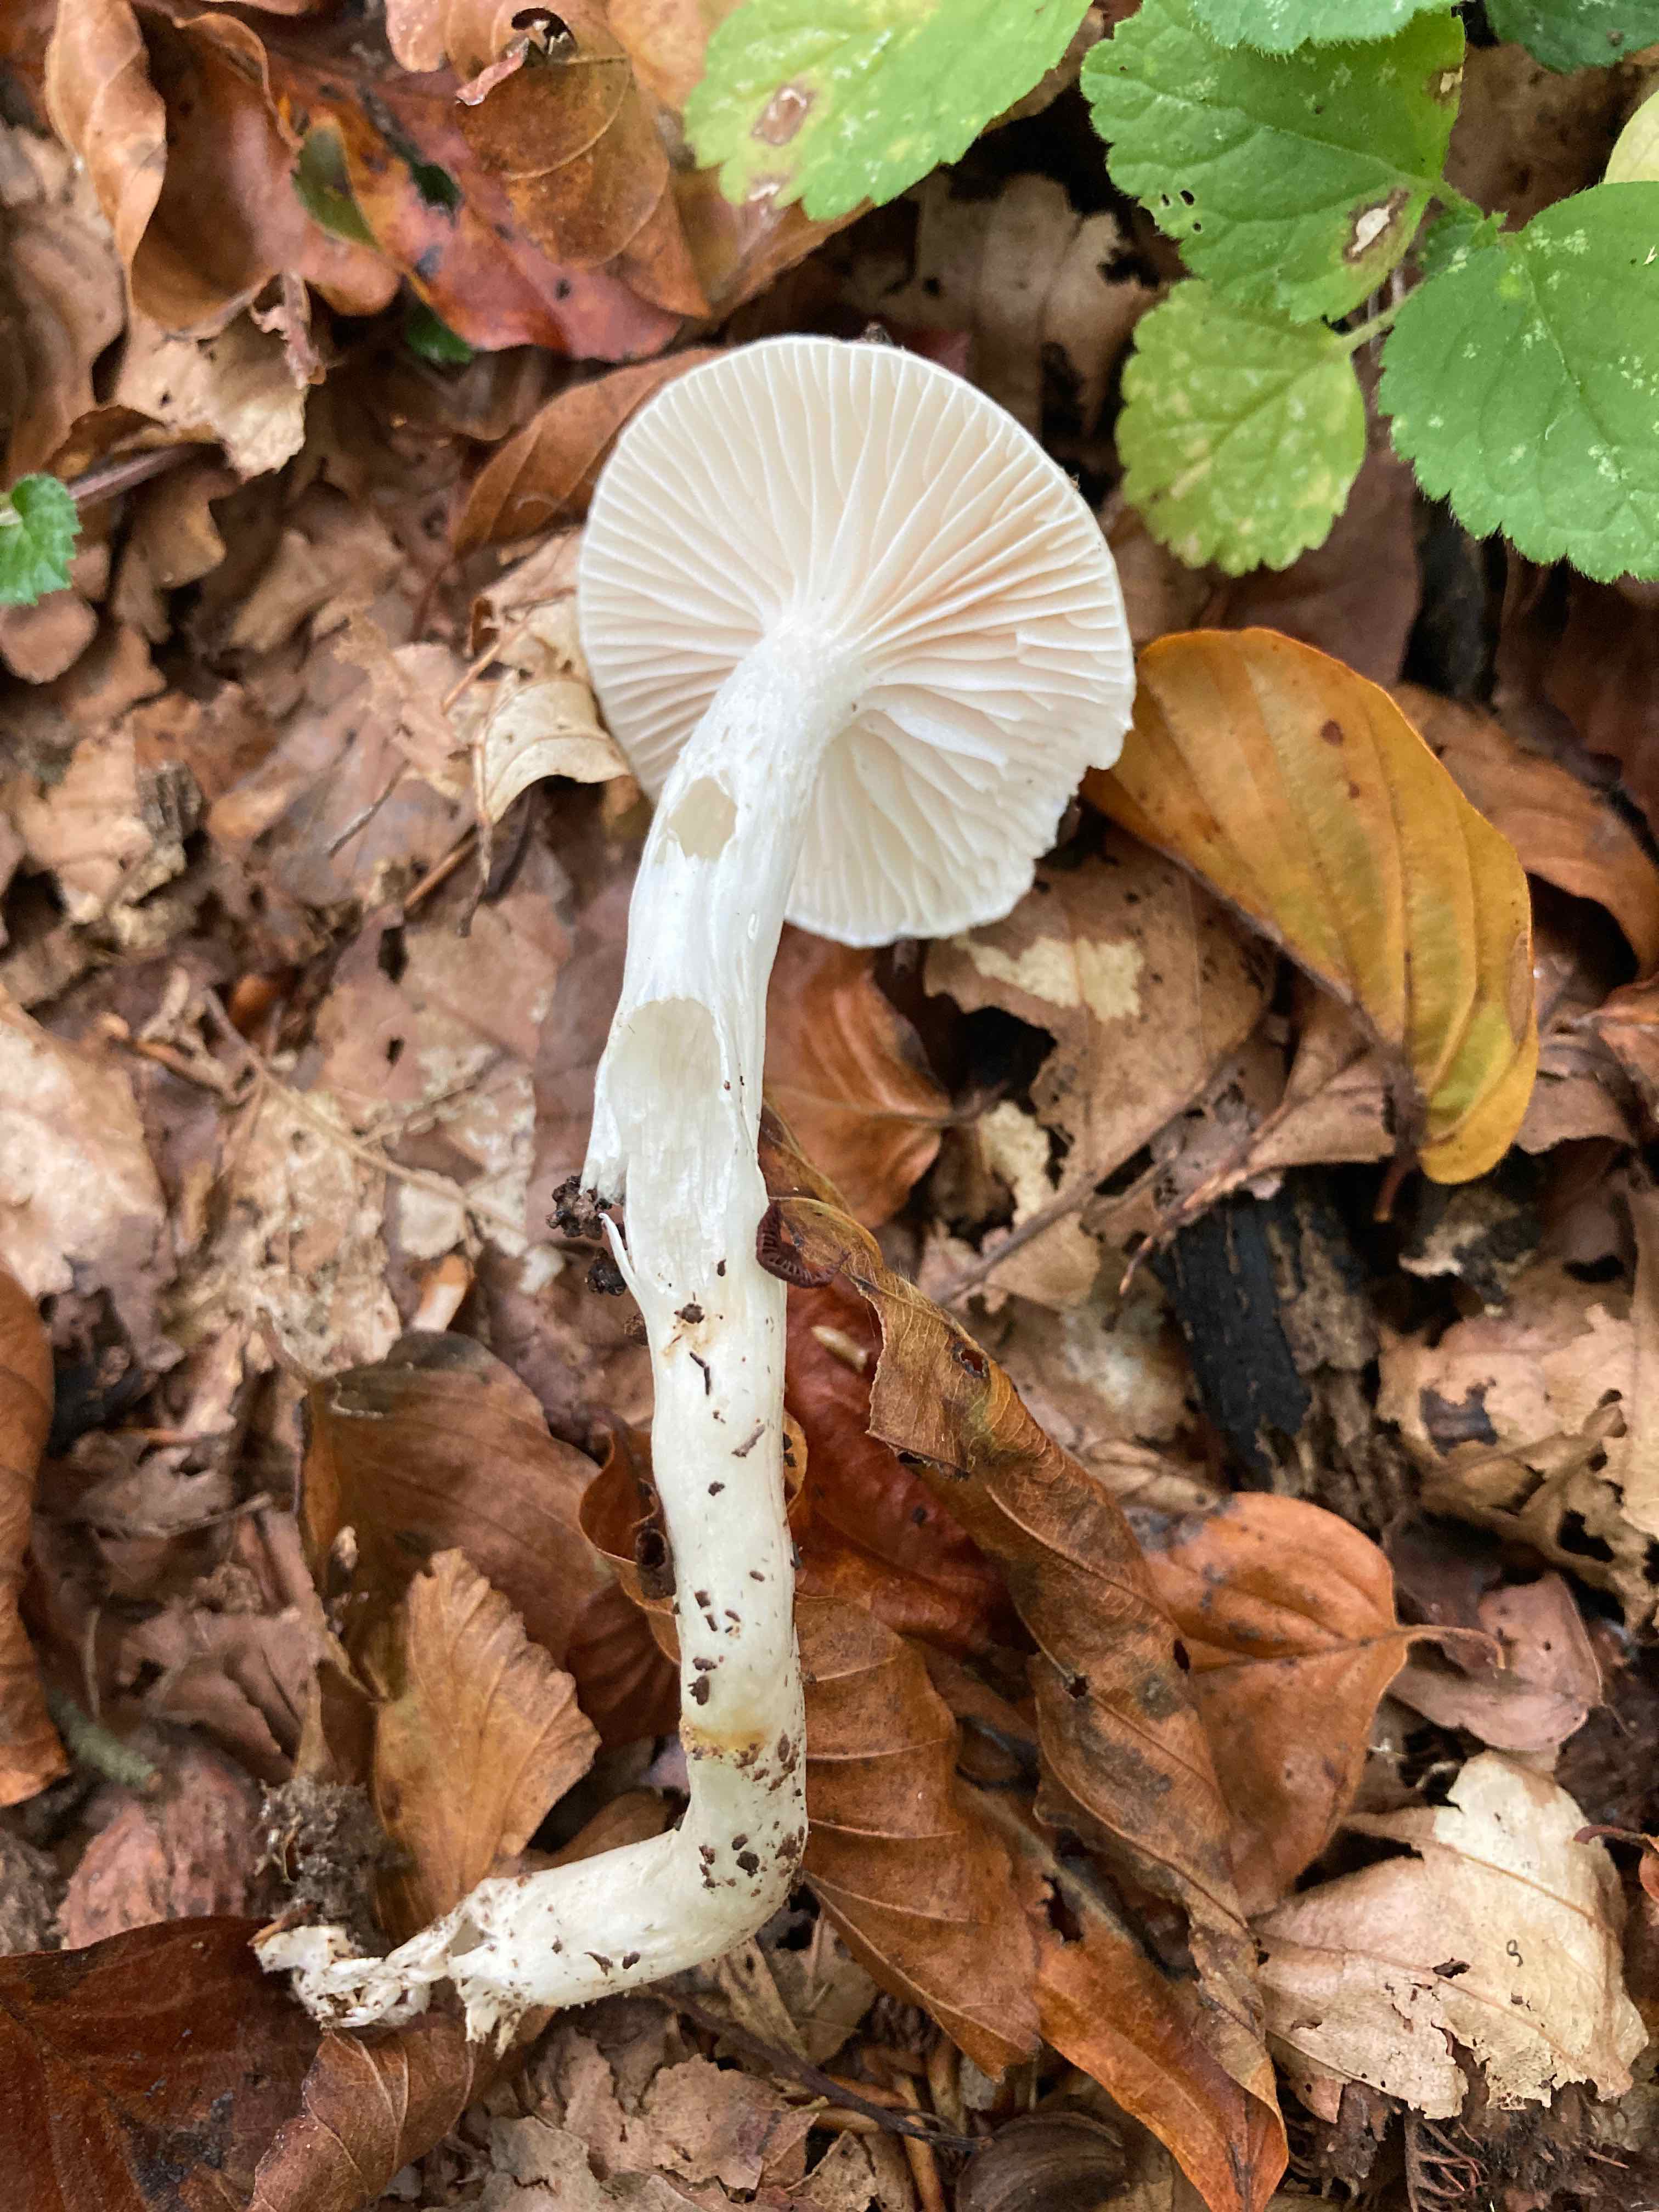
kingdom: Fungi
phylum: Basidiomycota
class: Agaricomycetes
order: Agaricales
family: Hygrophoraceae
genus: Hygrophorus
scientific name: Hygrophorus mesotephrus
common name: askegrå sneglehat
